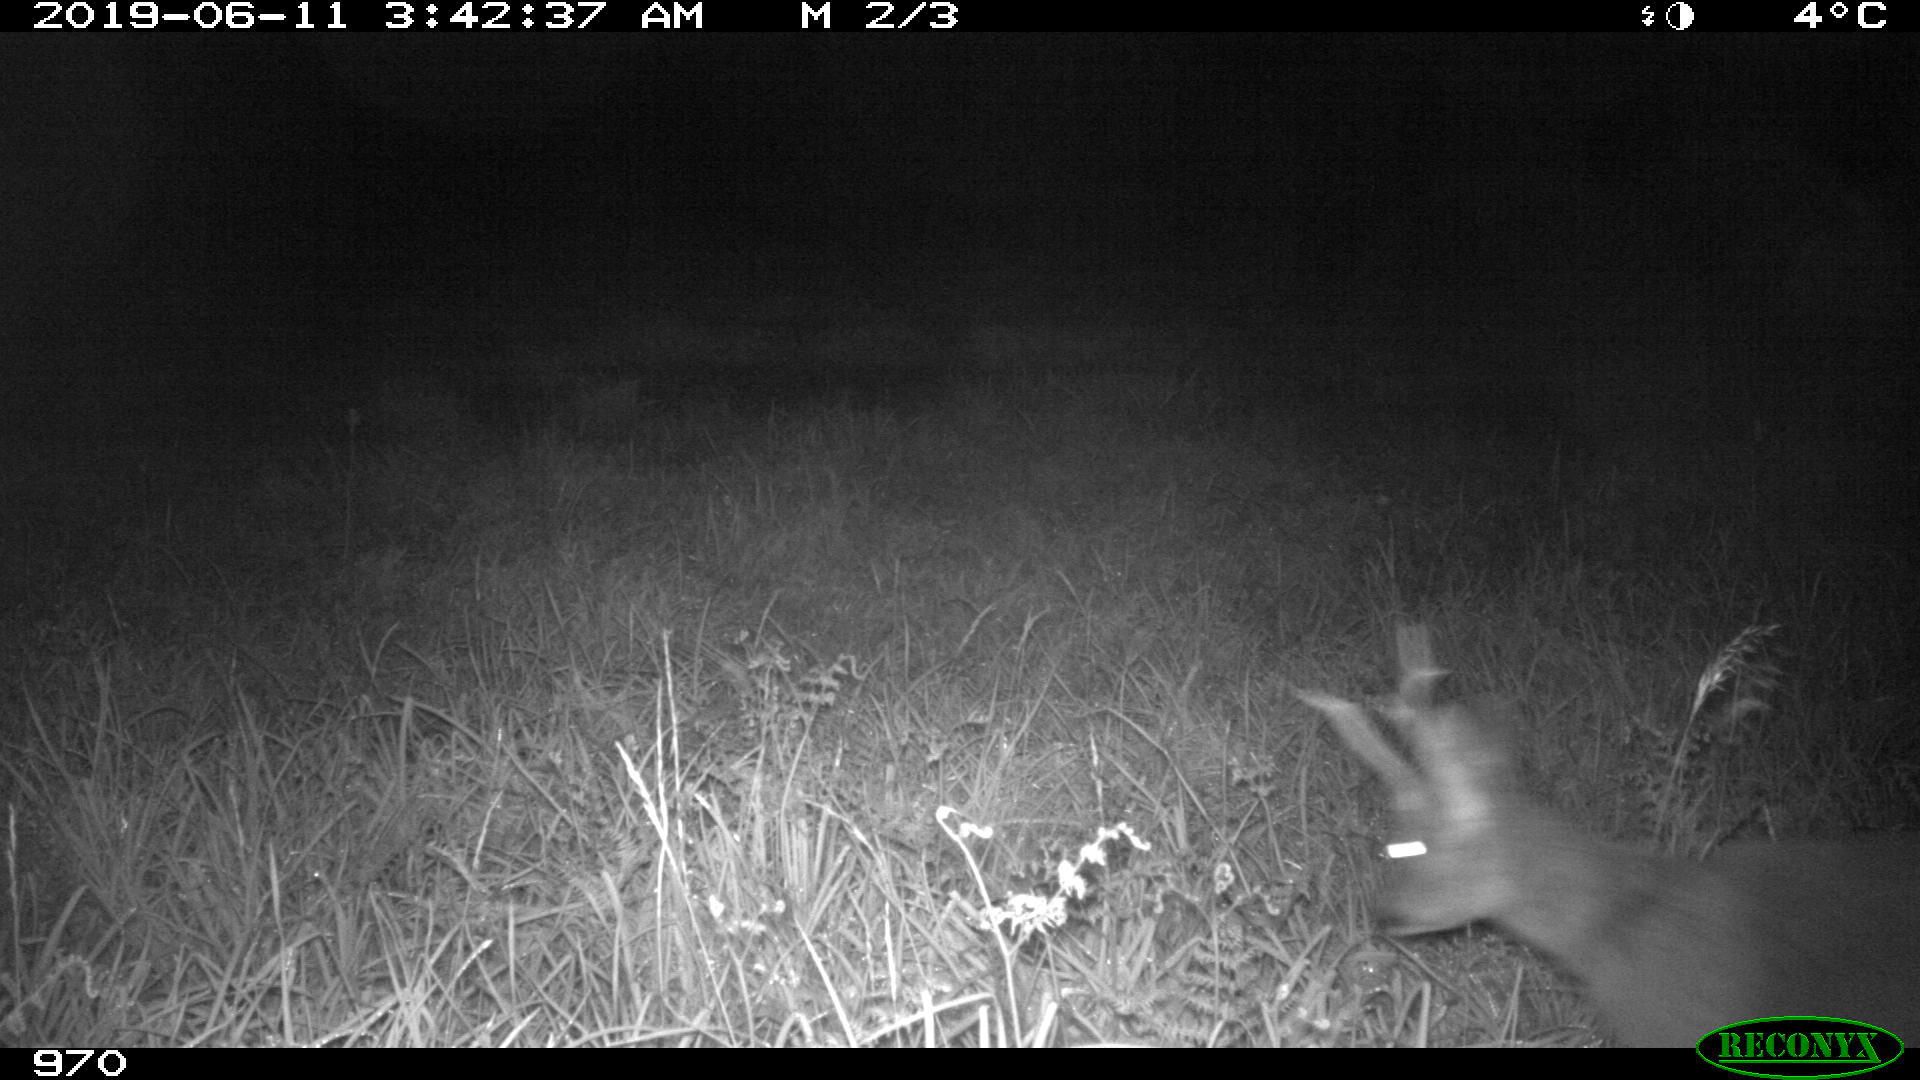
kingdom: Animalia
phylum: Chordata
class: Mammalia
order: Artiodactyla
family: Cervidae
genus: Capreolus
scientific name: Capreolus capreolus
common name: Western roe deer
